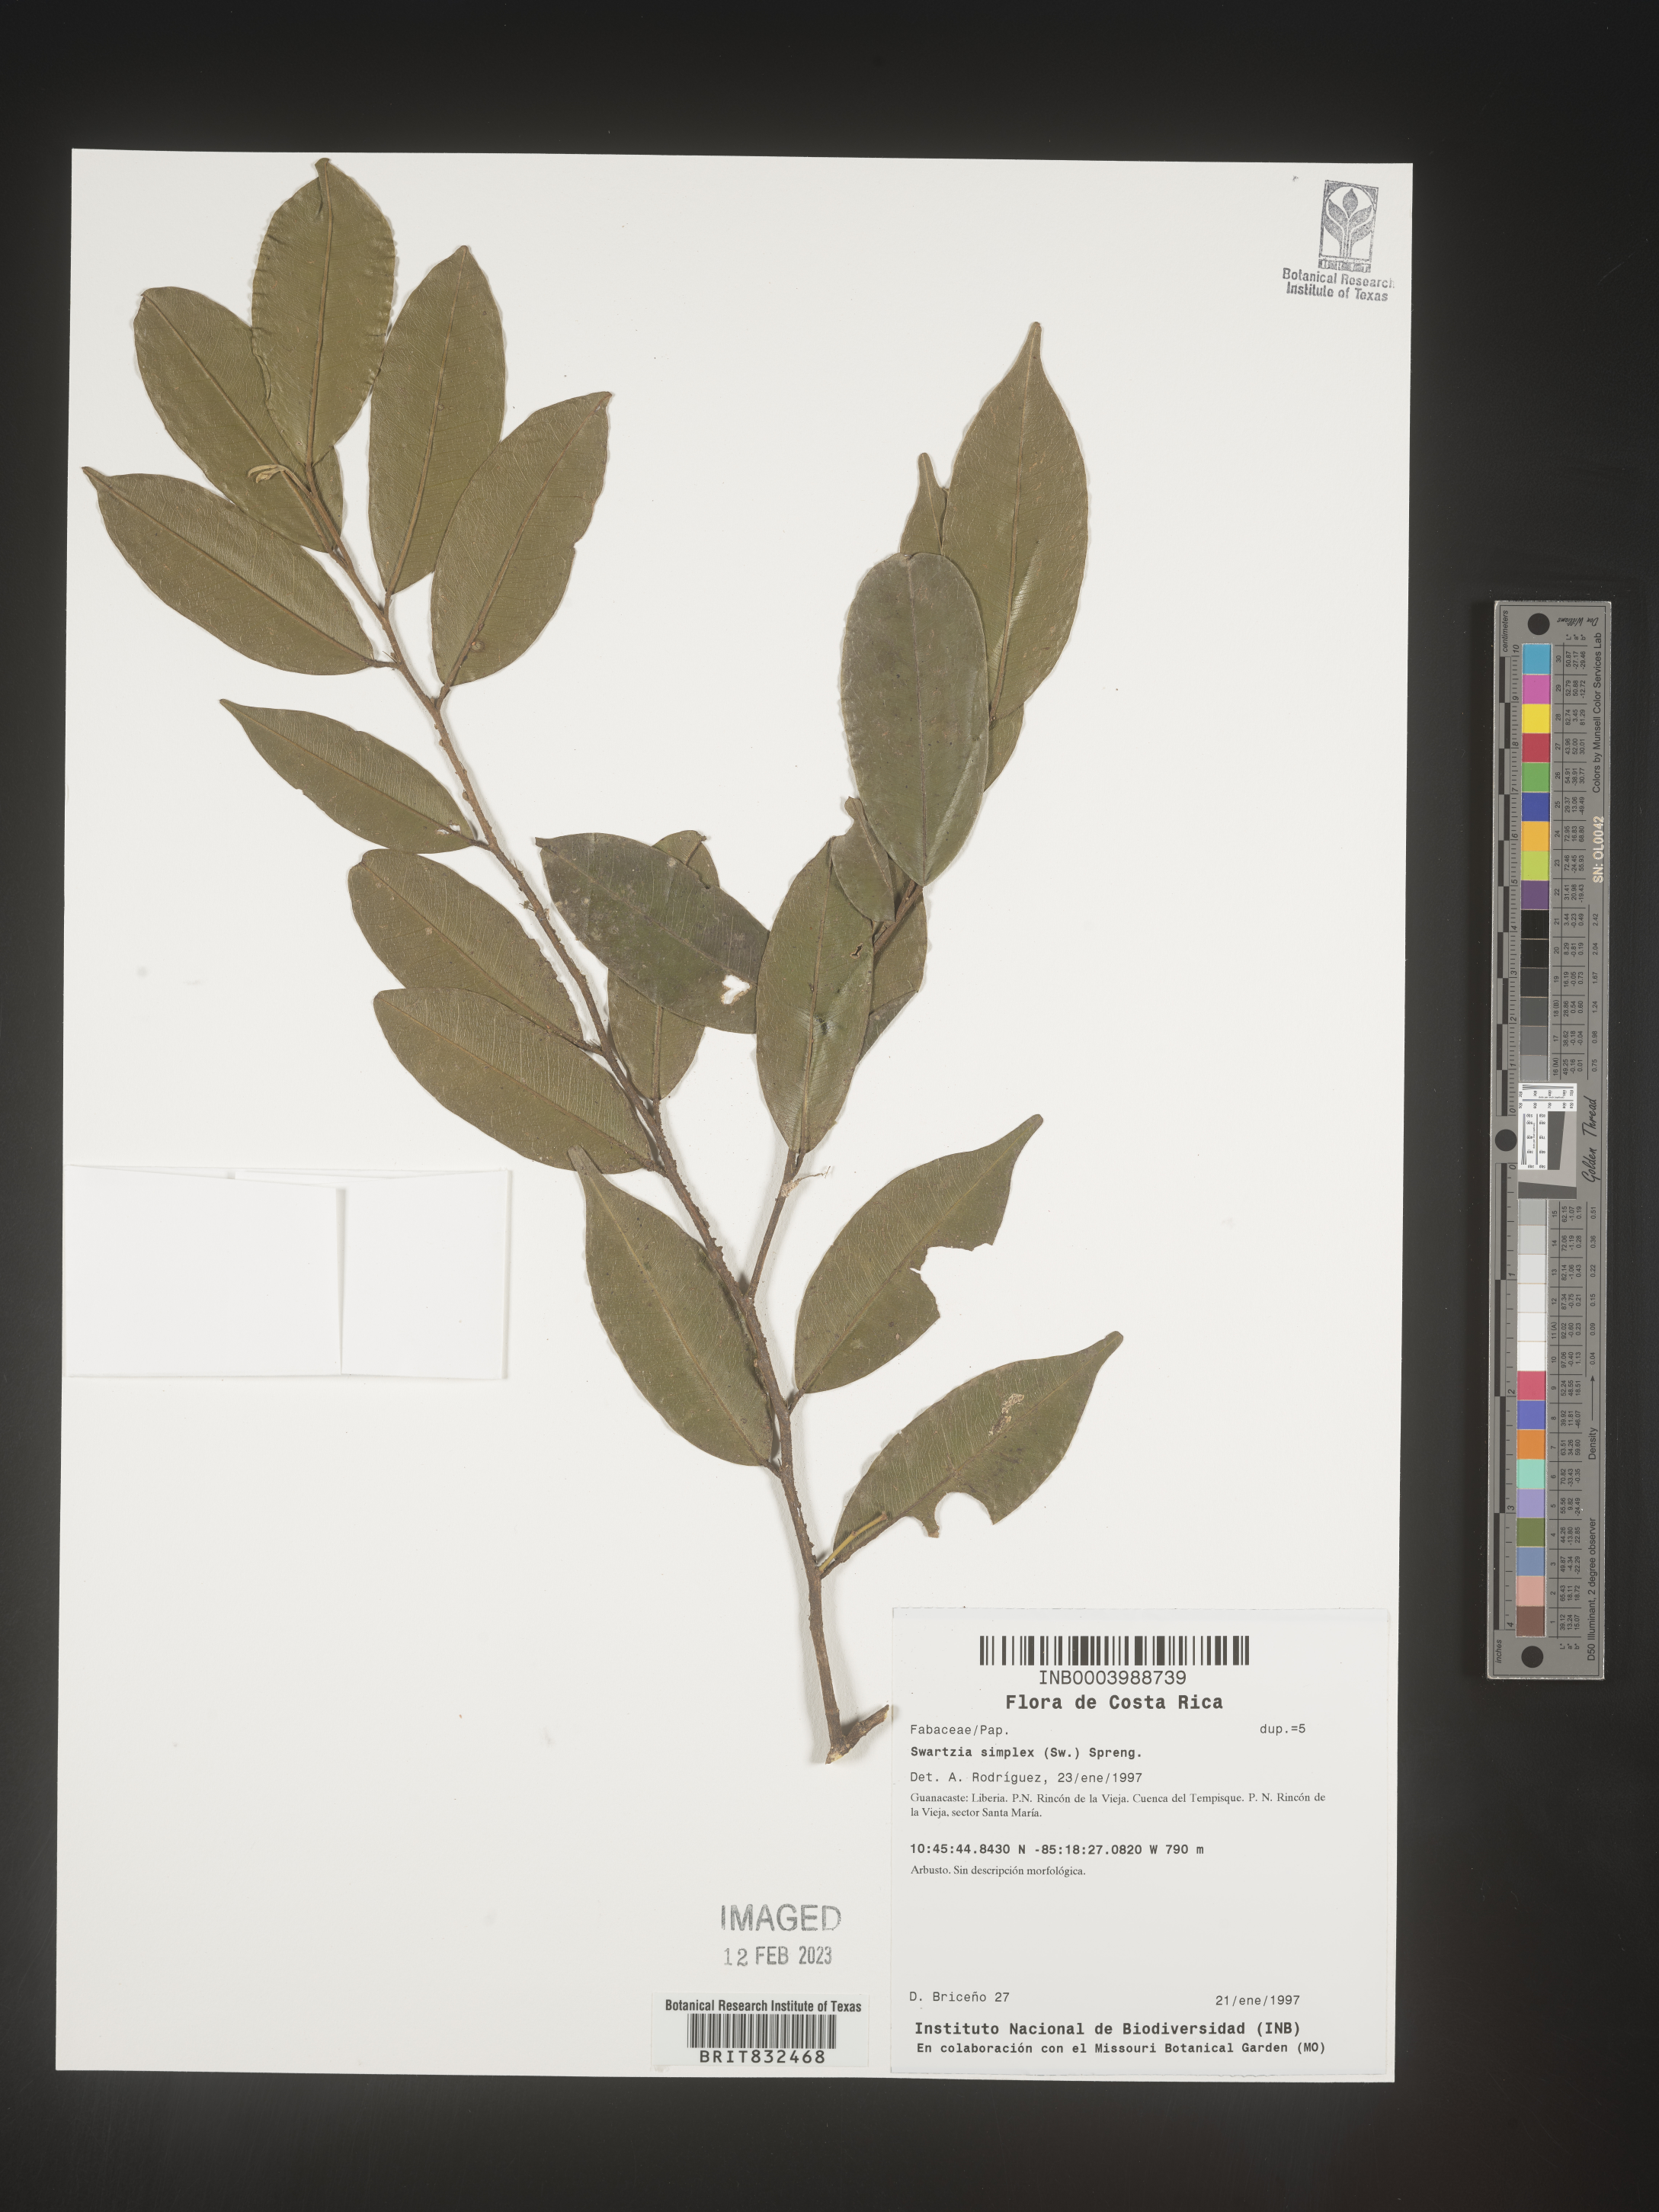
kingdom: Plantae
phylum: Tracheophyta
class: Magnoliopsida
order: Fabales
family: Fabaceae
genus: Swartzia
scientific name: Swartzia
